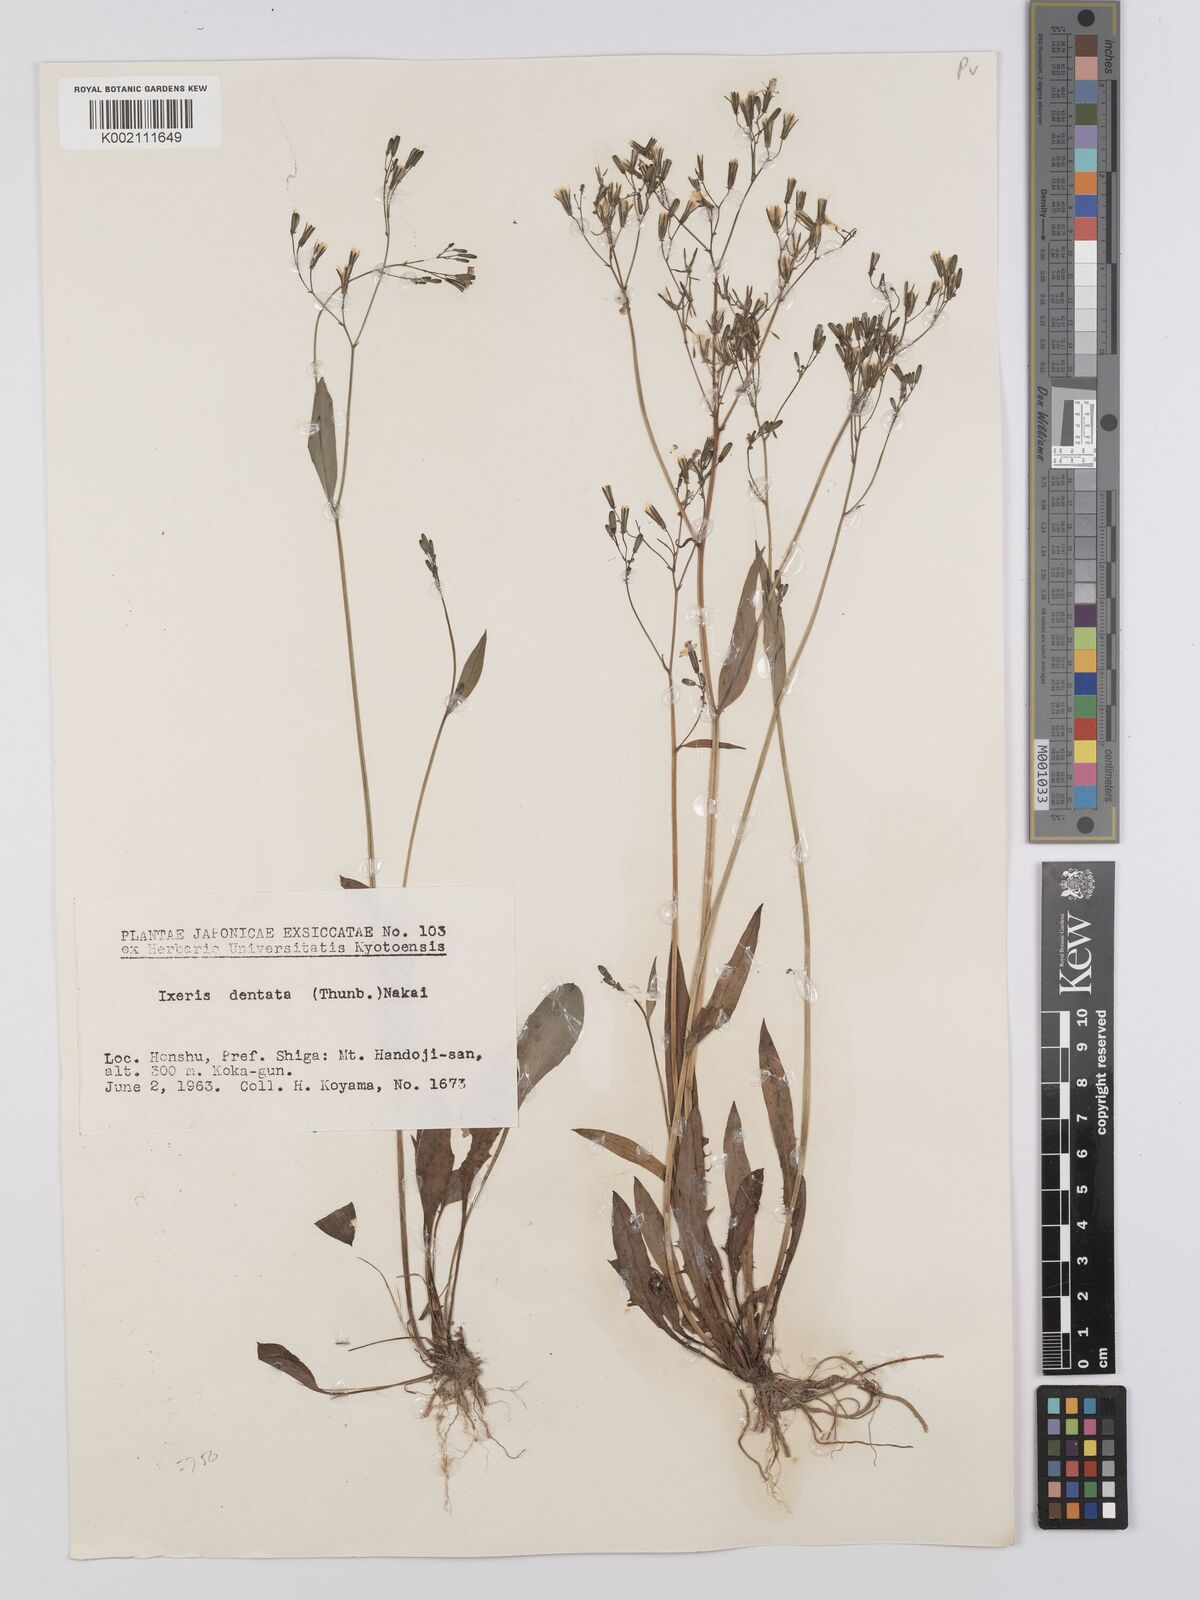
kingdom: Plantae
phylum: Tracheophyta
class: Magnoliopsida
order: Asterales
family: Asteraceae
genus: Ixeridium
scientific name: Ixeridium dentatum
